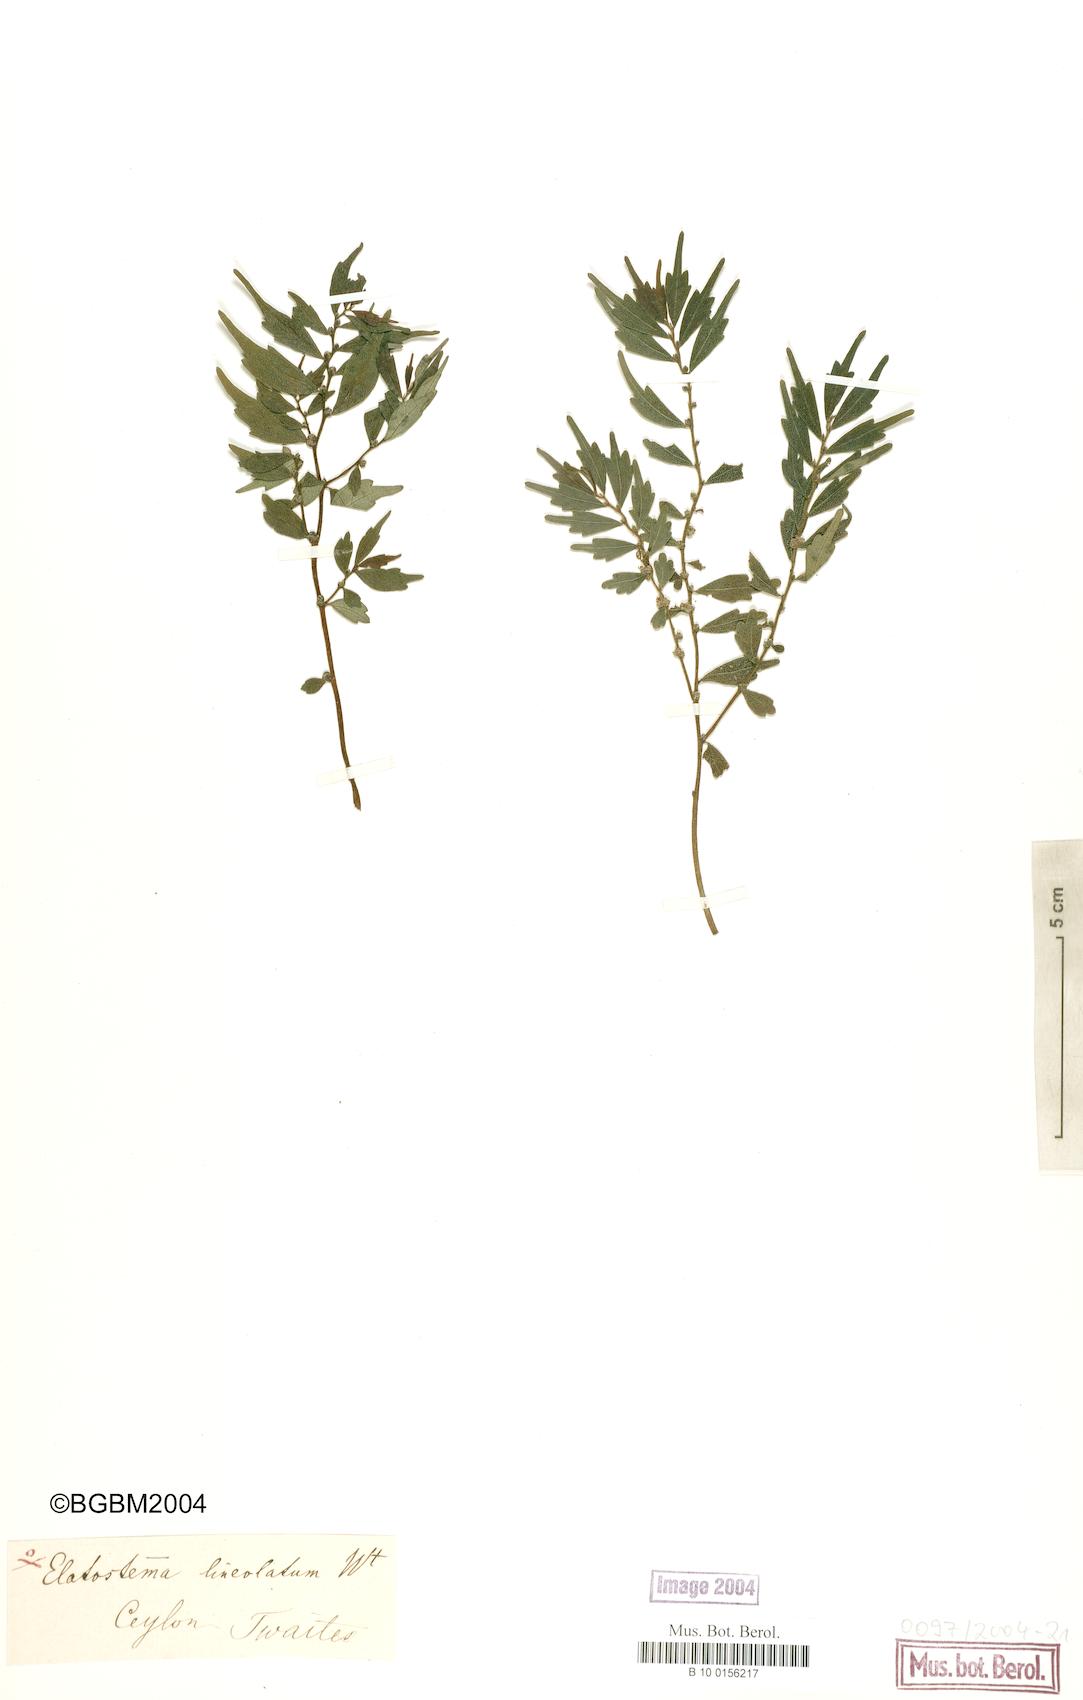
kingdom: Plantae
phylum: Tracheophyta
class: Magnoliopsida
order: Rosales
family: Urticaceae
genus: Elatostema
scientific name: Elatostema lineolatum
